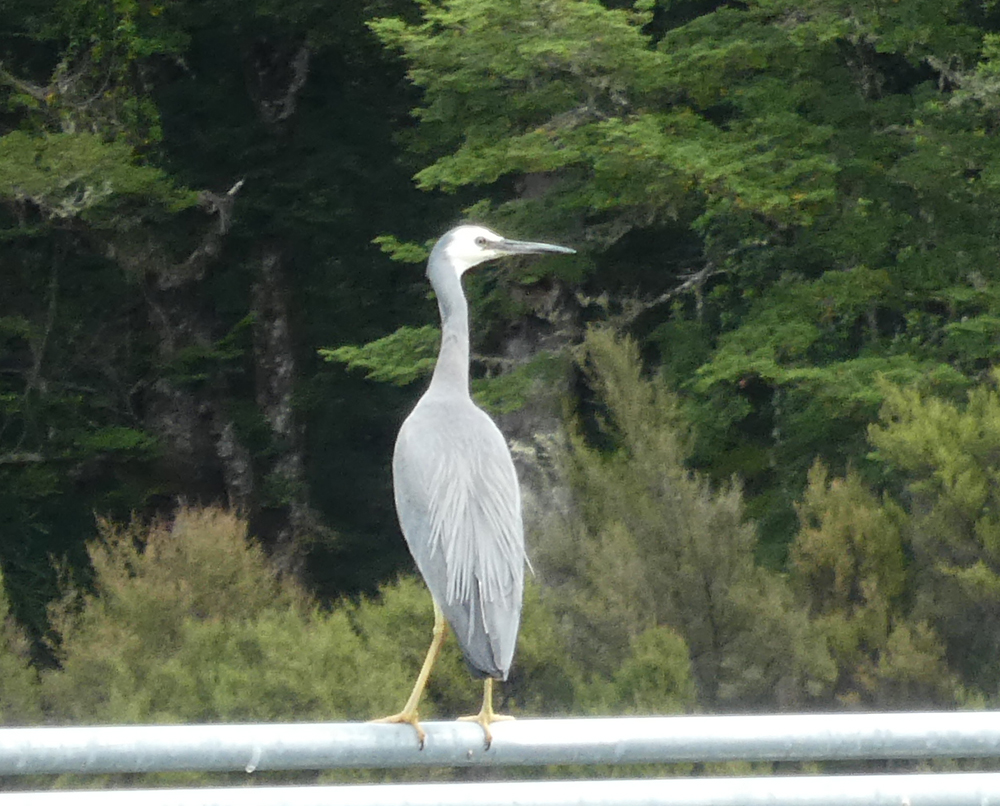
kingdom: Animalia
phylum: Chordata
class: Aves
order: Pelecaniformes
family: Ardeidae
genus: Egretta
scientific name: Egretta novaehollandiae
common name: White-faced heron
